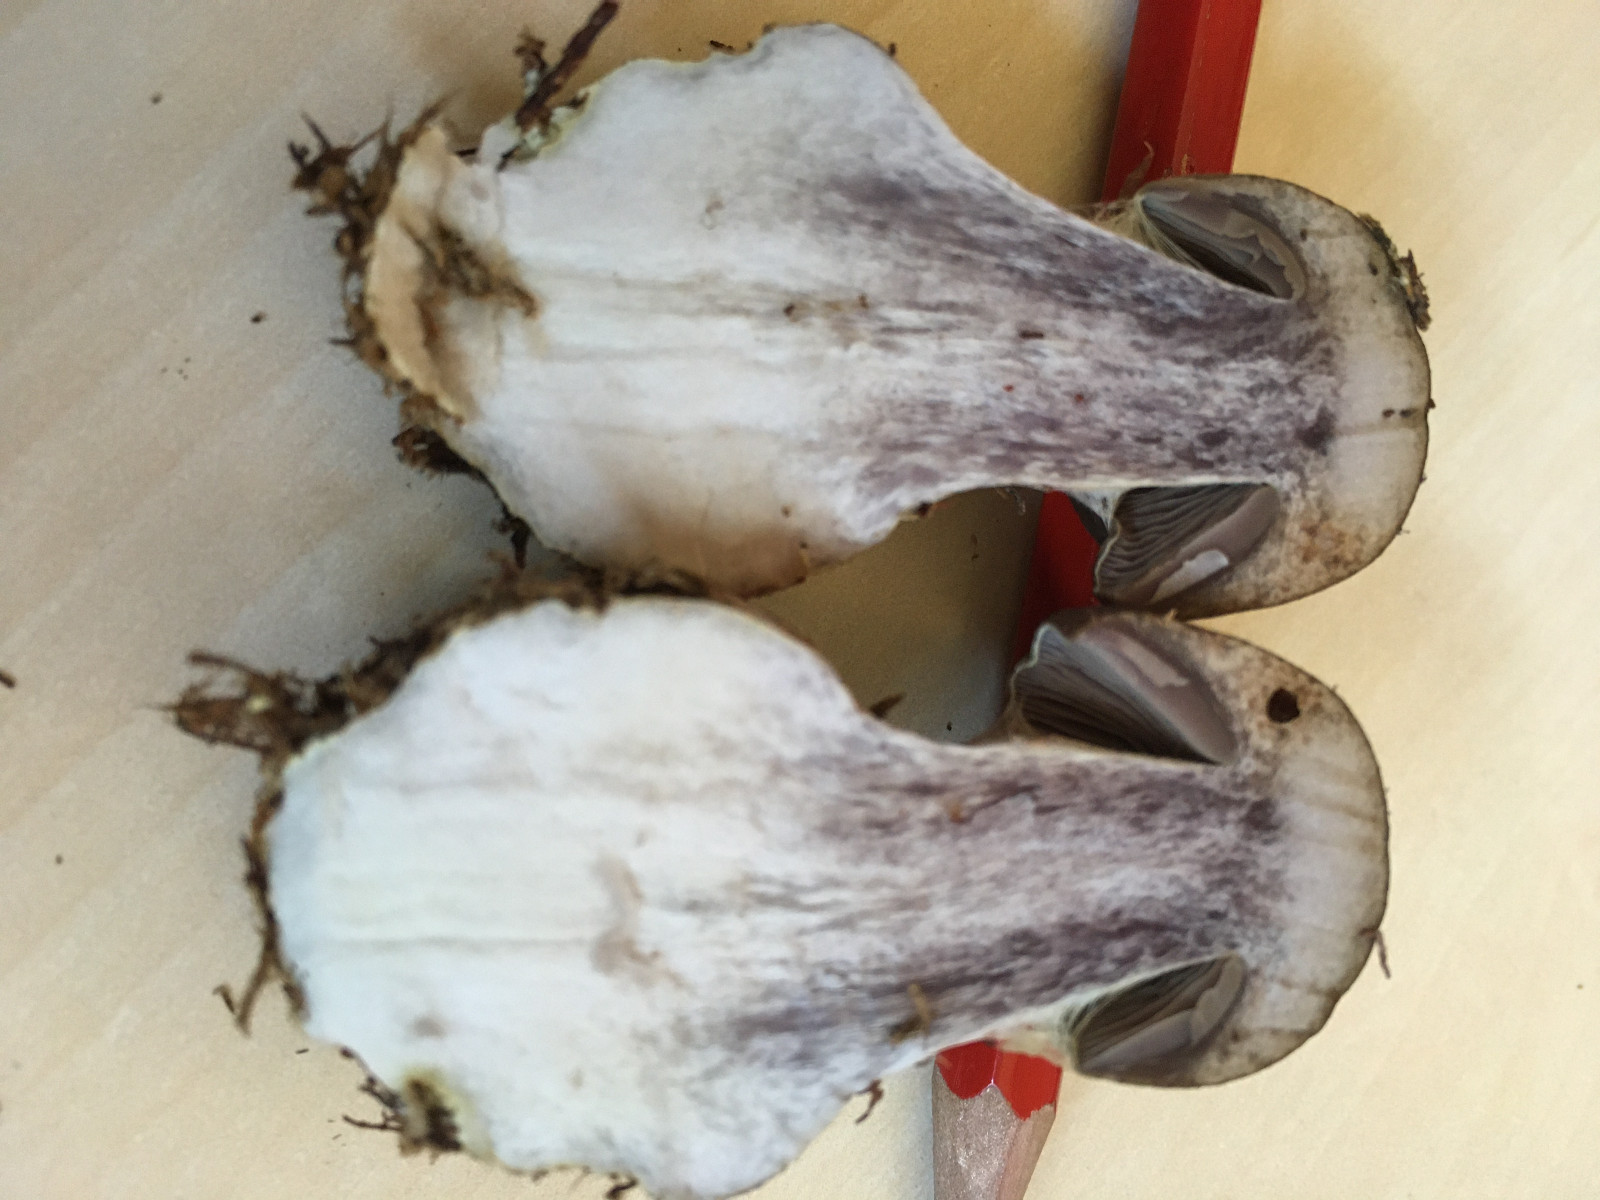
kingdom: Fungi
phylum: Basidiomycota
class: Agaricomycetes
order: Agaricales
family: Cortinariaceae
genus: Cortinarius
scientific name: Cortinarius
